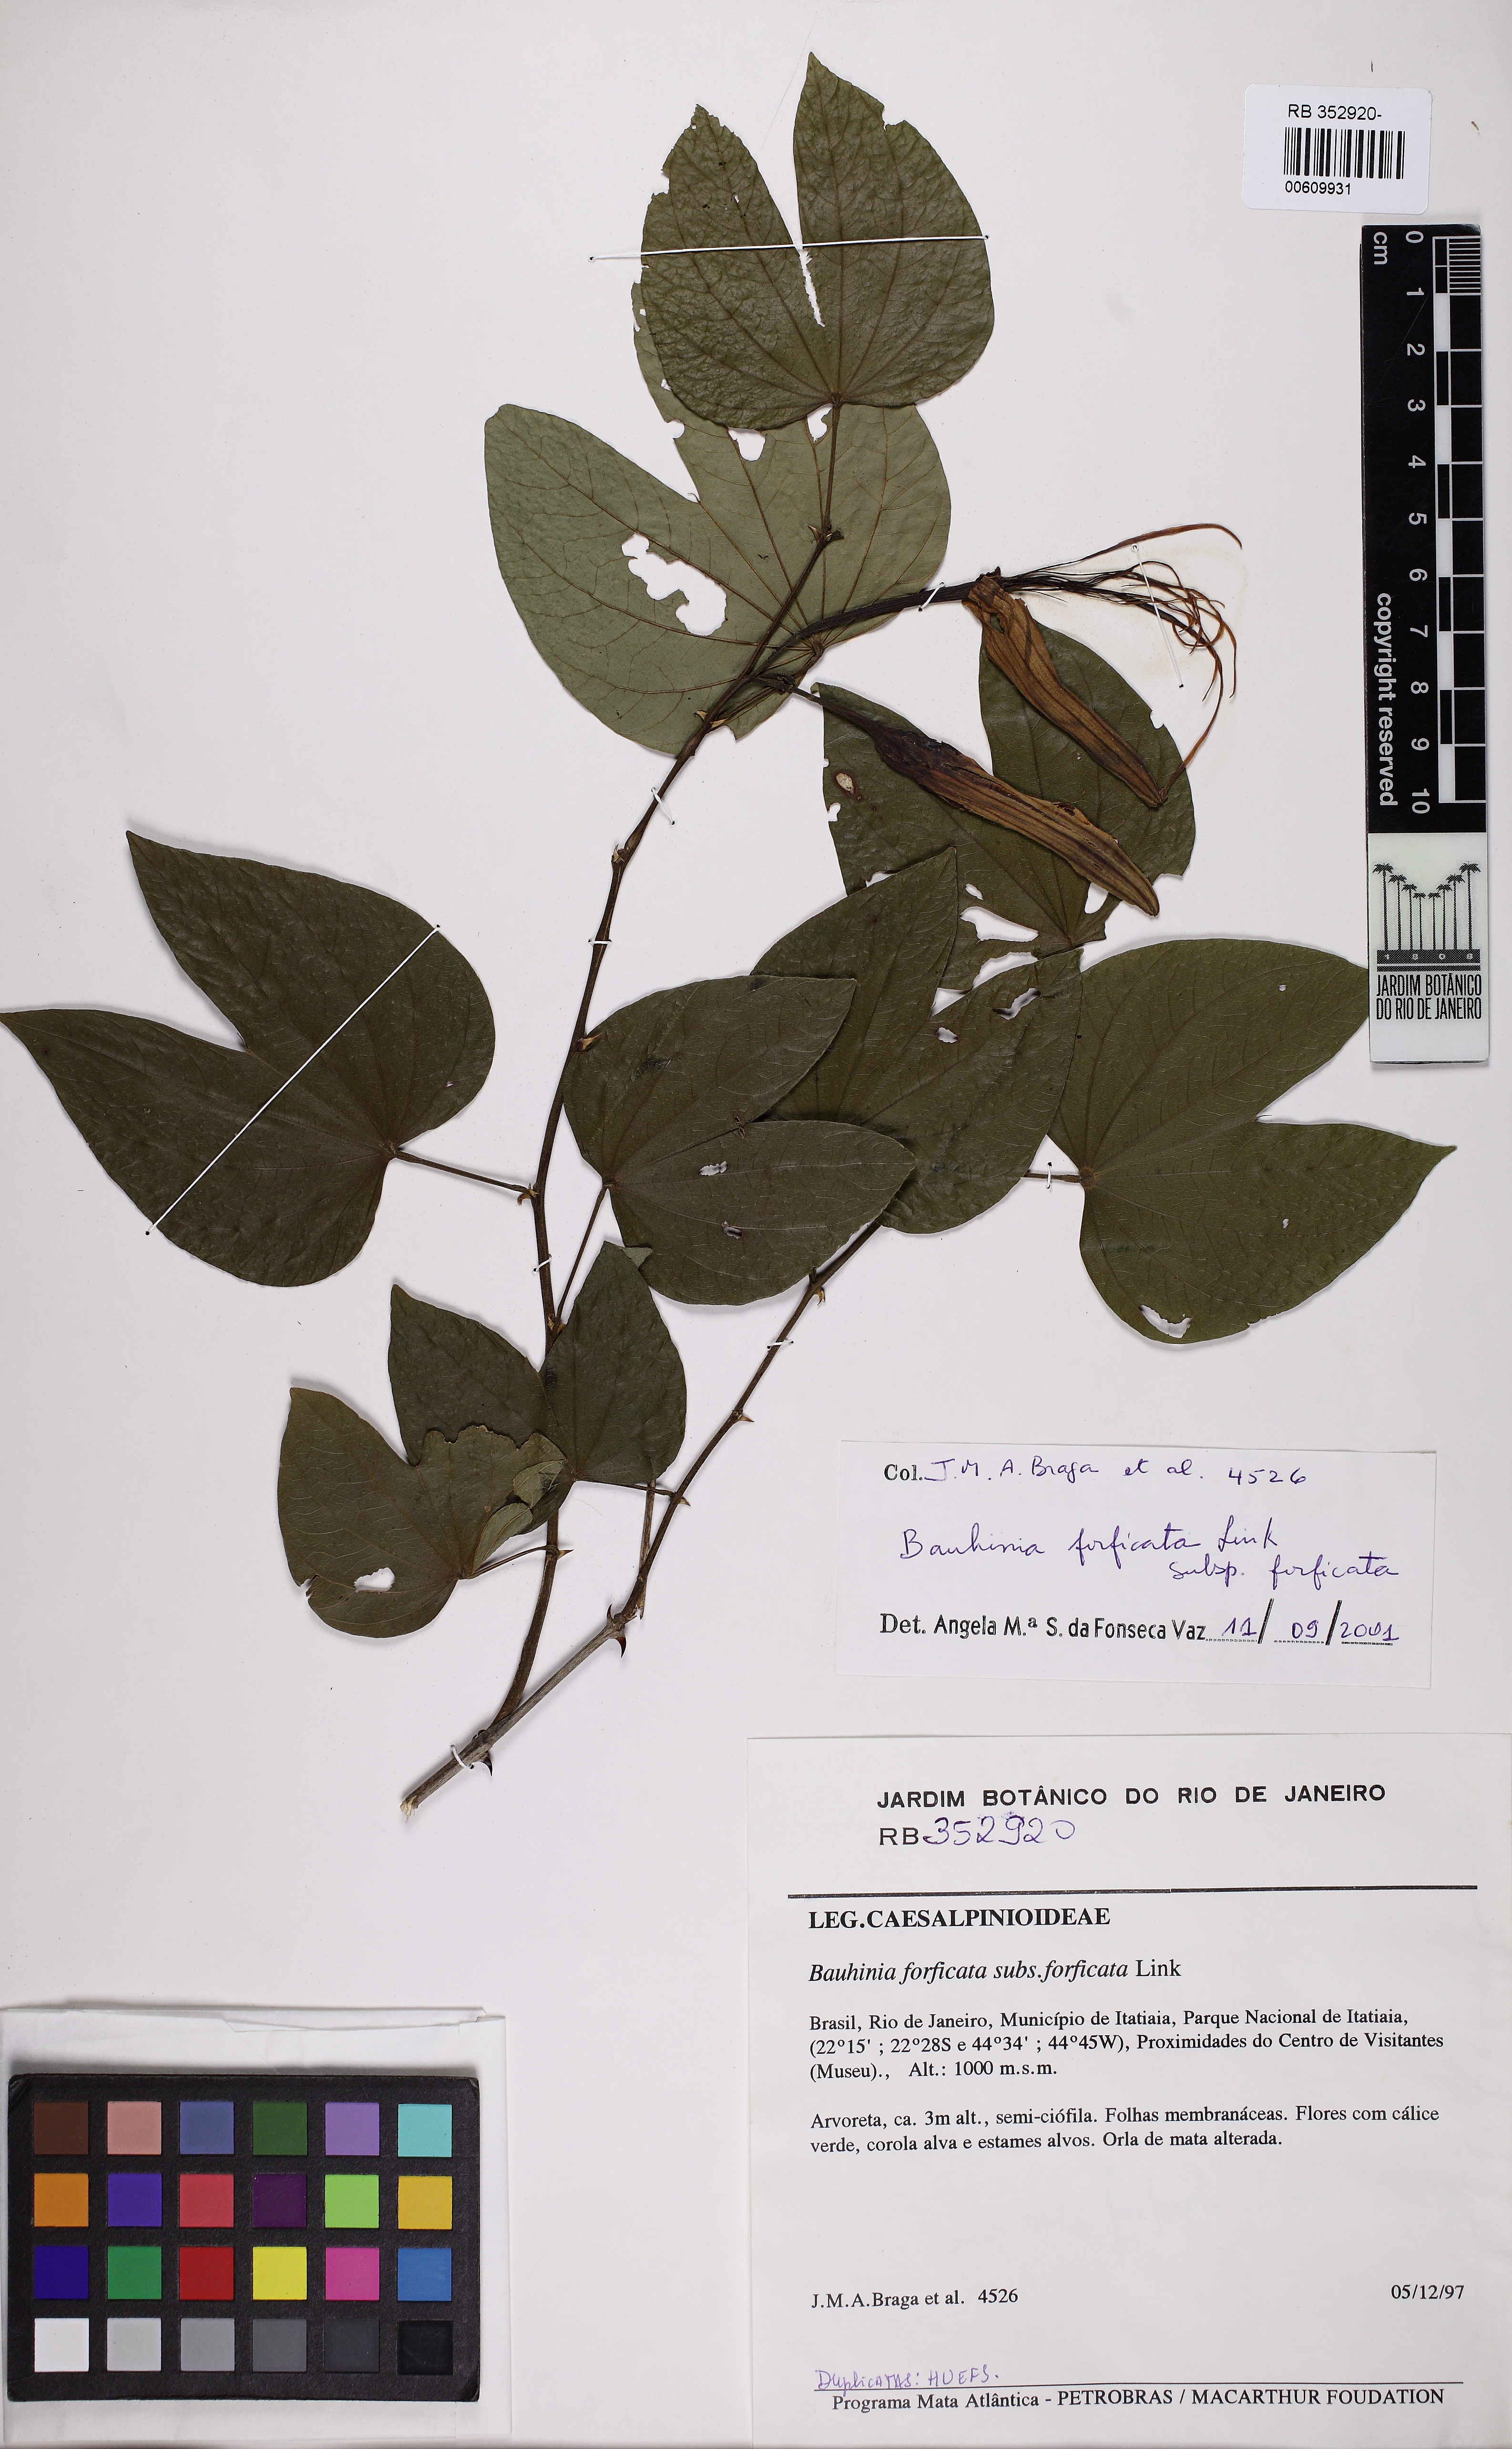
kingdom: Plantae
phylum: Tracheophyta
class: Magnoliopsida
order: Fabales
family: Fabaceae
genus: Bauhinia
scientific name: Bauhinia forficata
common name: Orchid tree
